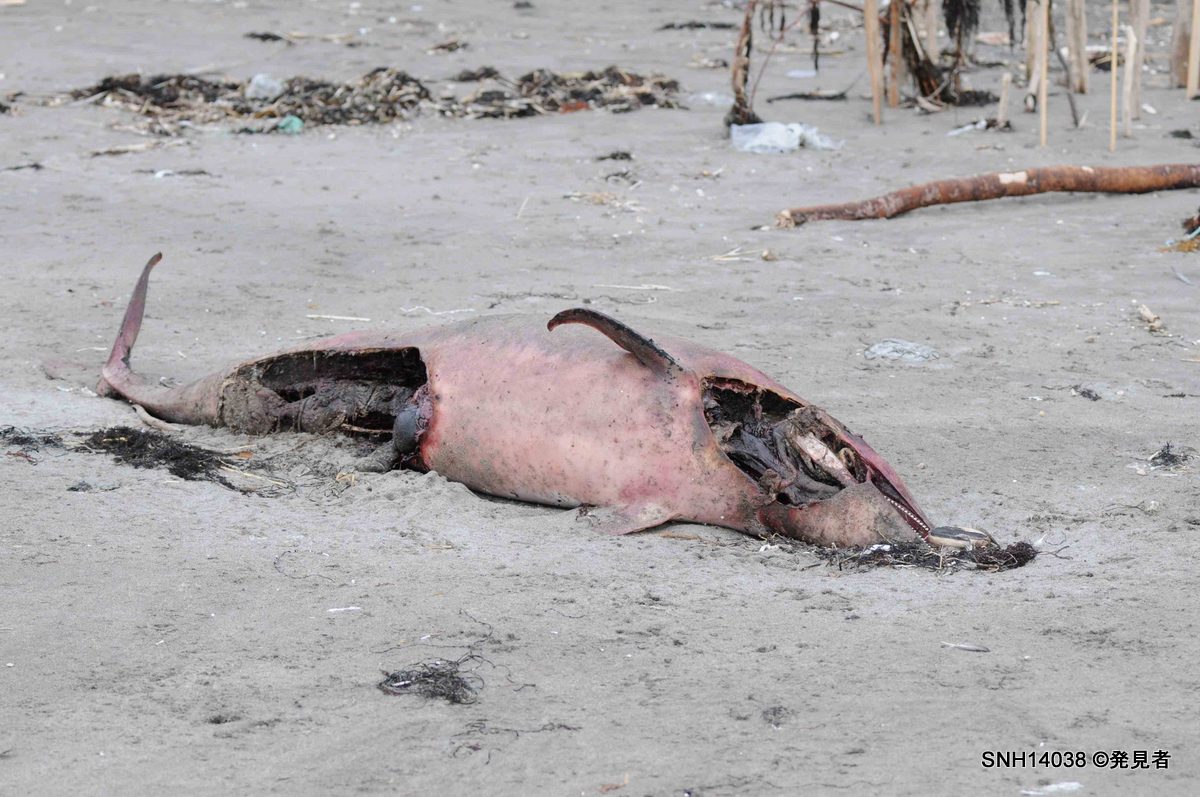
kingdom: Animalia
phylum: Chordata
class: Mammalia
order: Cetacea
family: Delphinidae
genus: Lagenorhynchus
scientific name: Lagenorhynchus obliquidens
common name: Pacific white-sided dolphin
